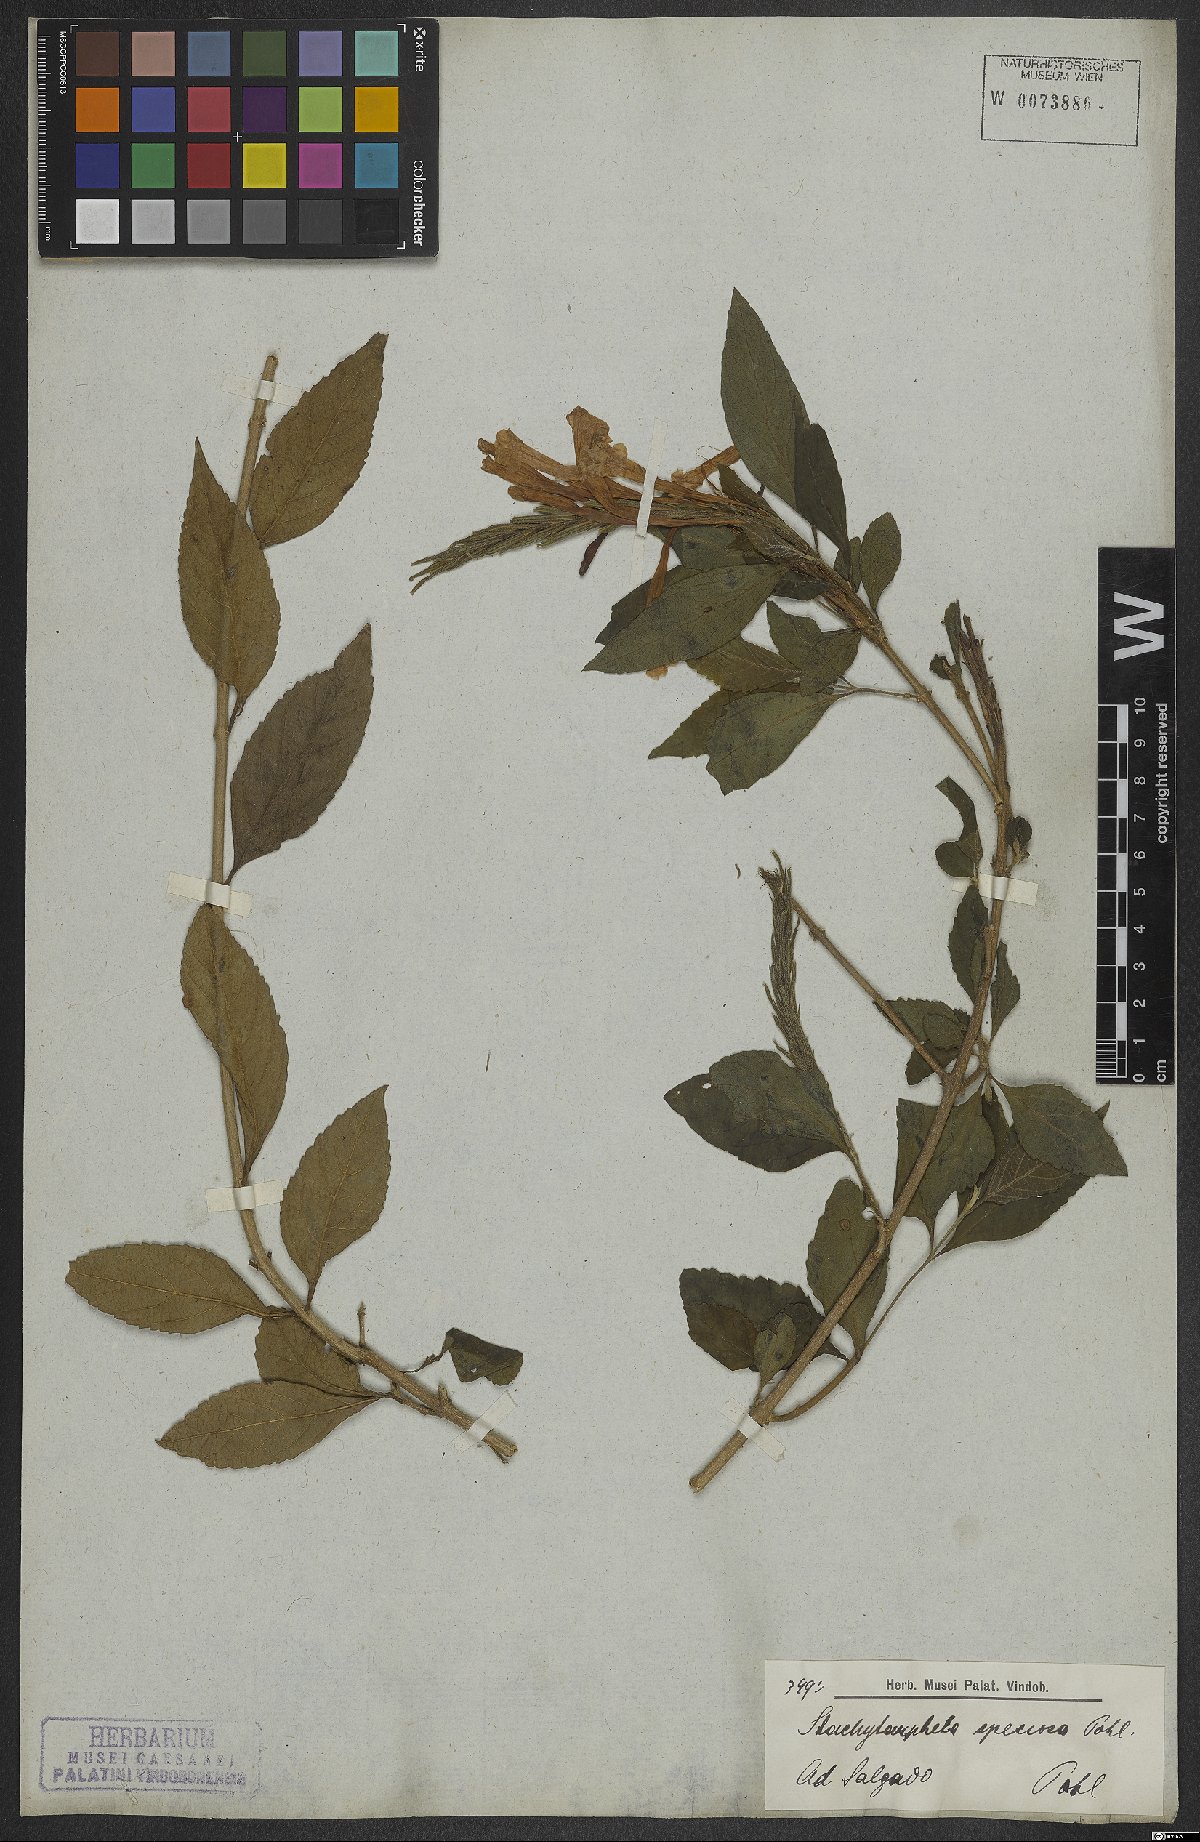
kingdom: Plantae
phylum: Tracheophyta
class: Magnoliopsida
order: Lamiales
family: Verbenaceae
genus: Stachytarpheta
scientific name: Stachytarpheta speciosa
